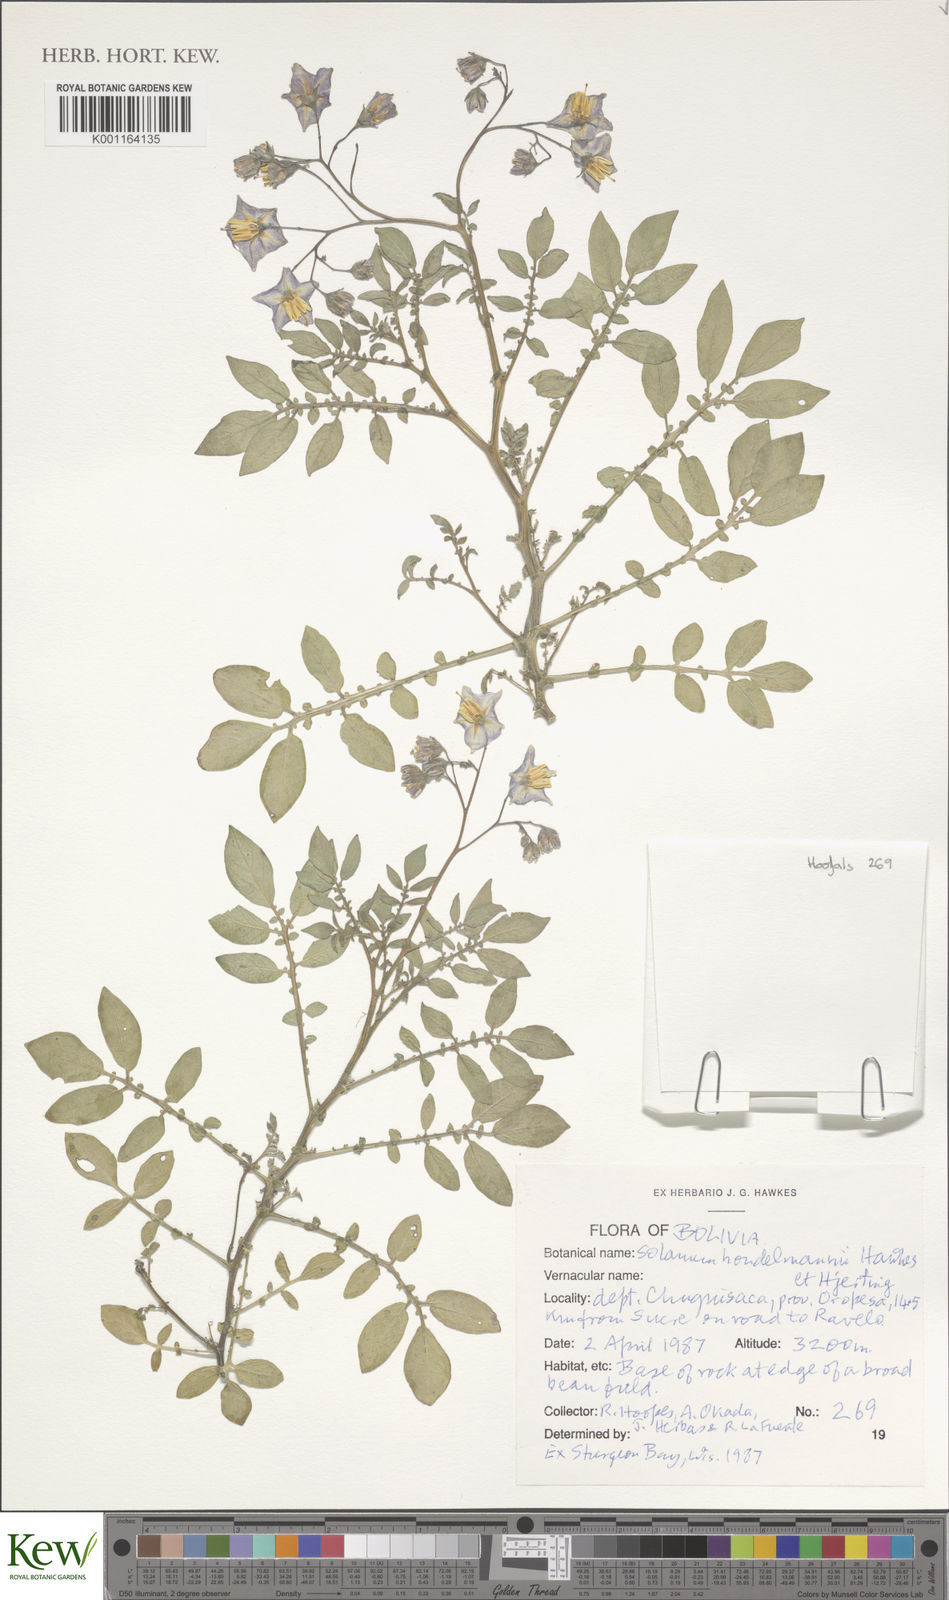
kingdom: Plantae
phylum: Tracheophyta
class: Magnoliopsida
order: Solanales
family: Solanaceae
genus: Solanum
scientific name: Solanum brevicaule
